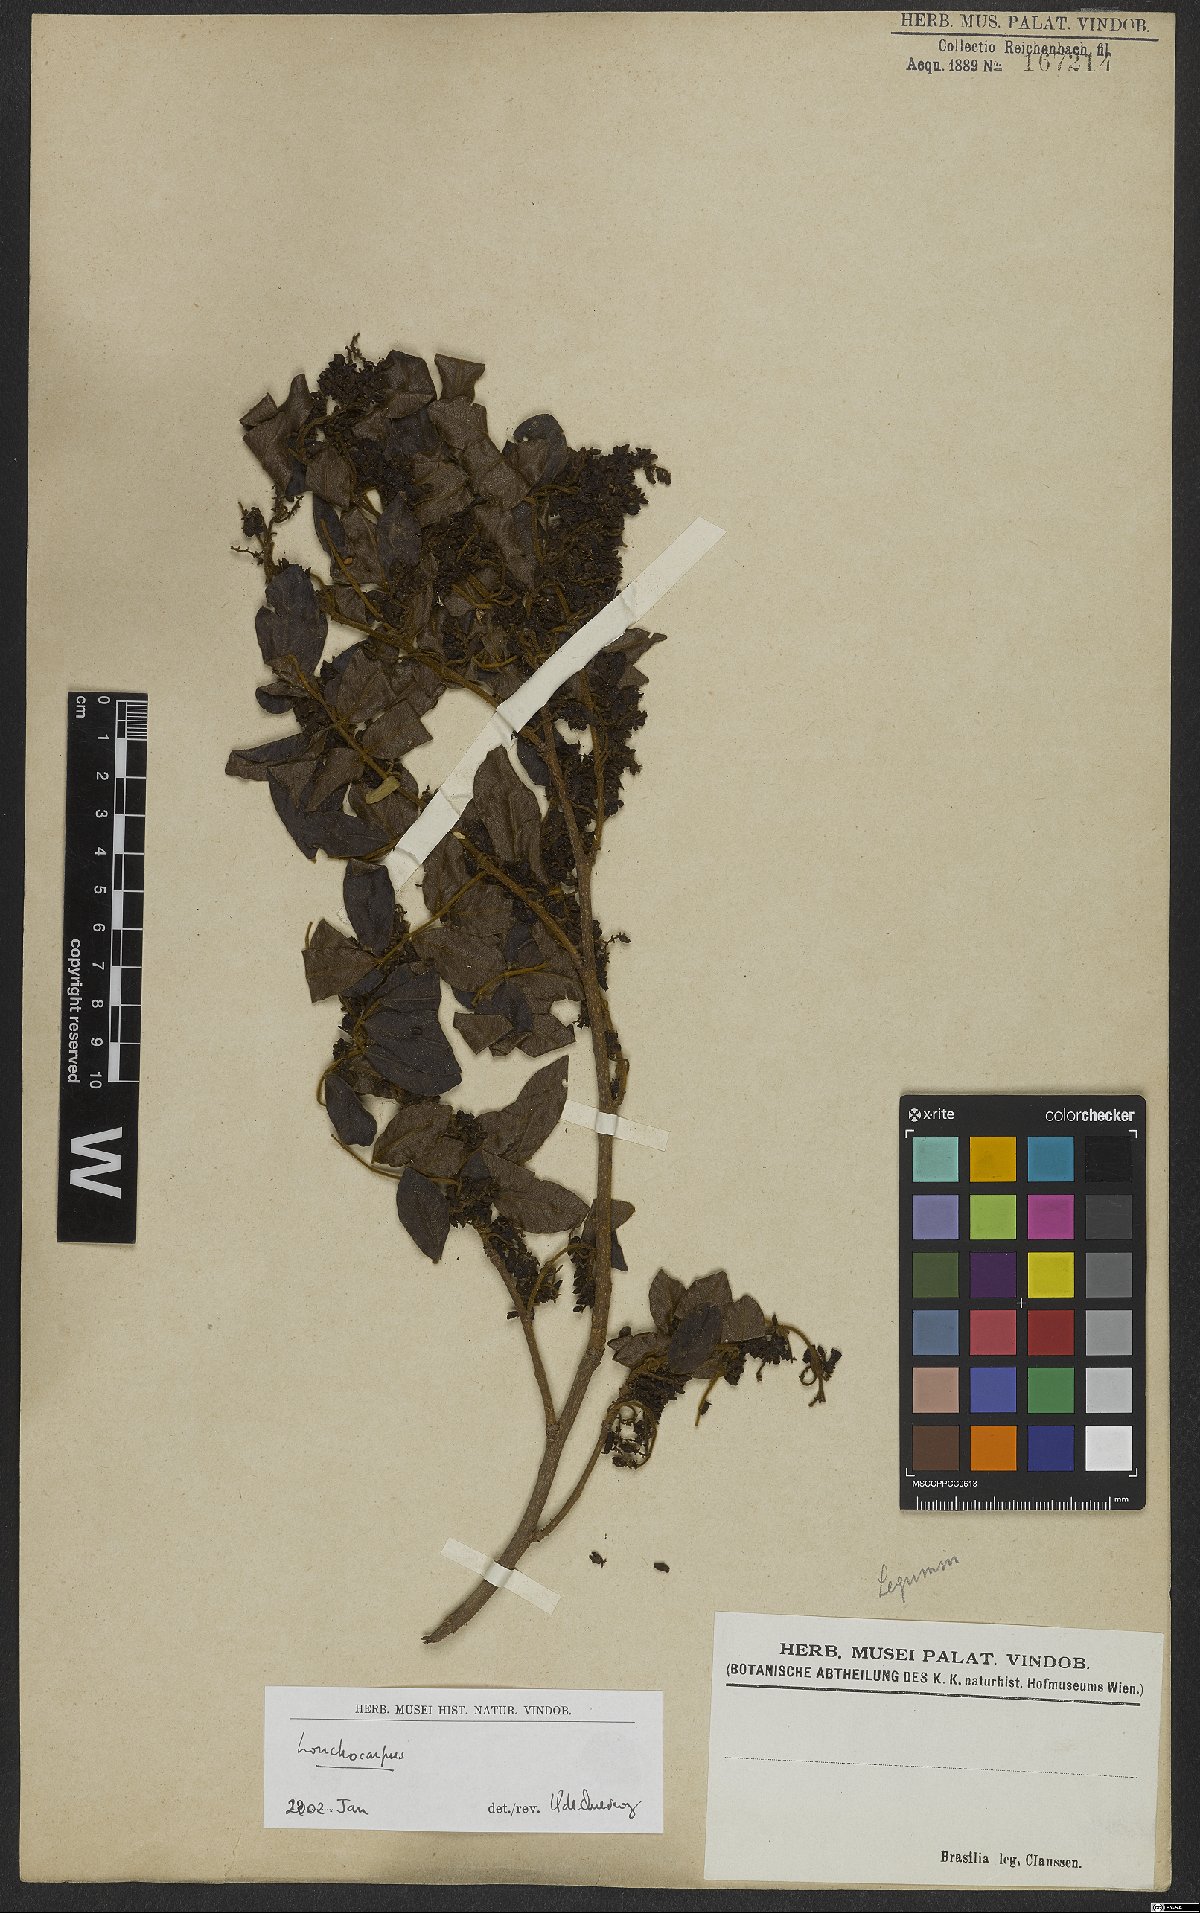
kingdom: Plantae
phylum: Tracheophyta
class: Magnoliopsida
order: Fabales
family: Fabaceae
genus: Lonchocarpus
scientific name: Lonchocarpus
